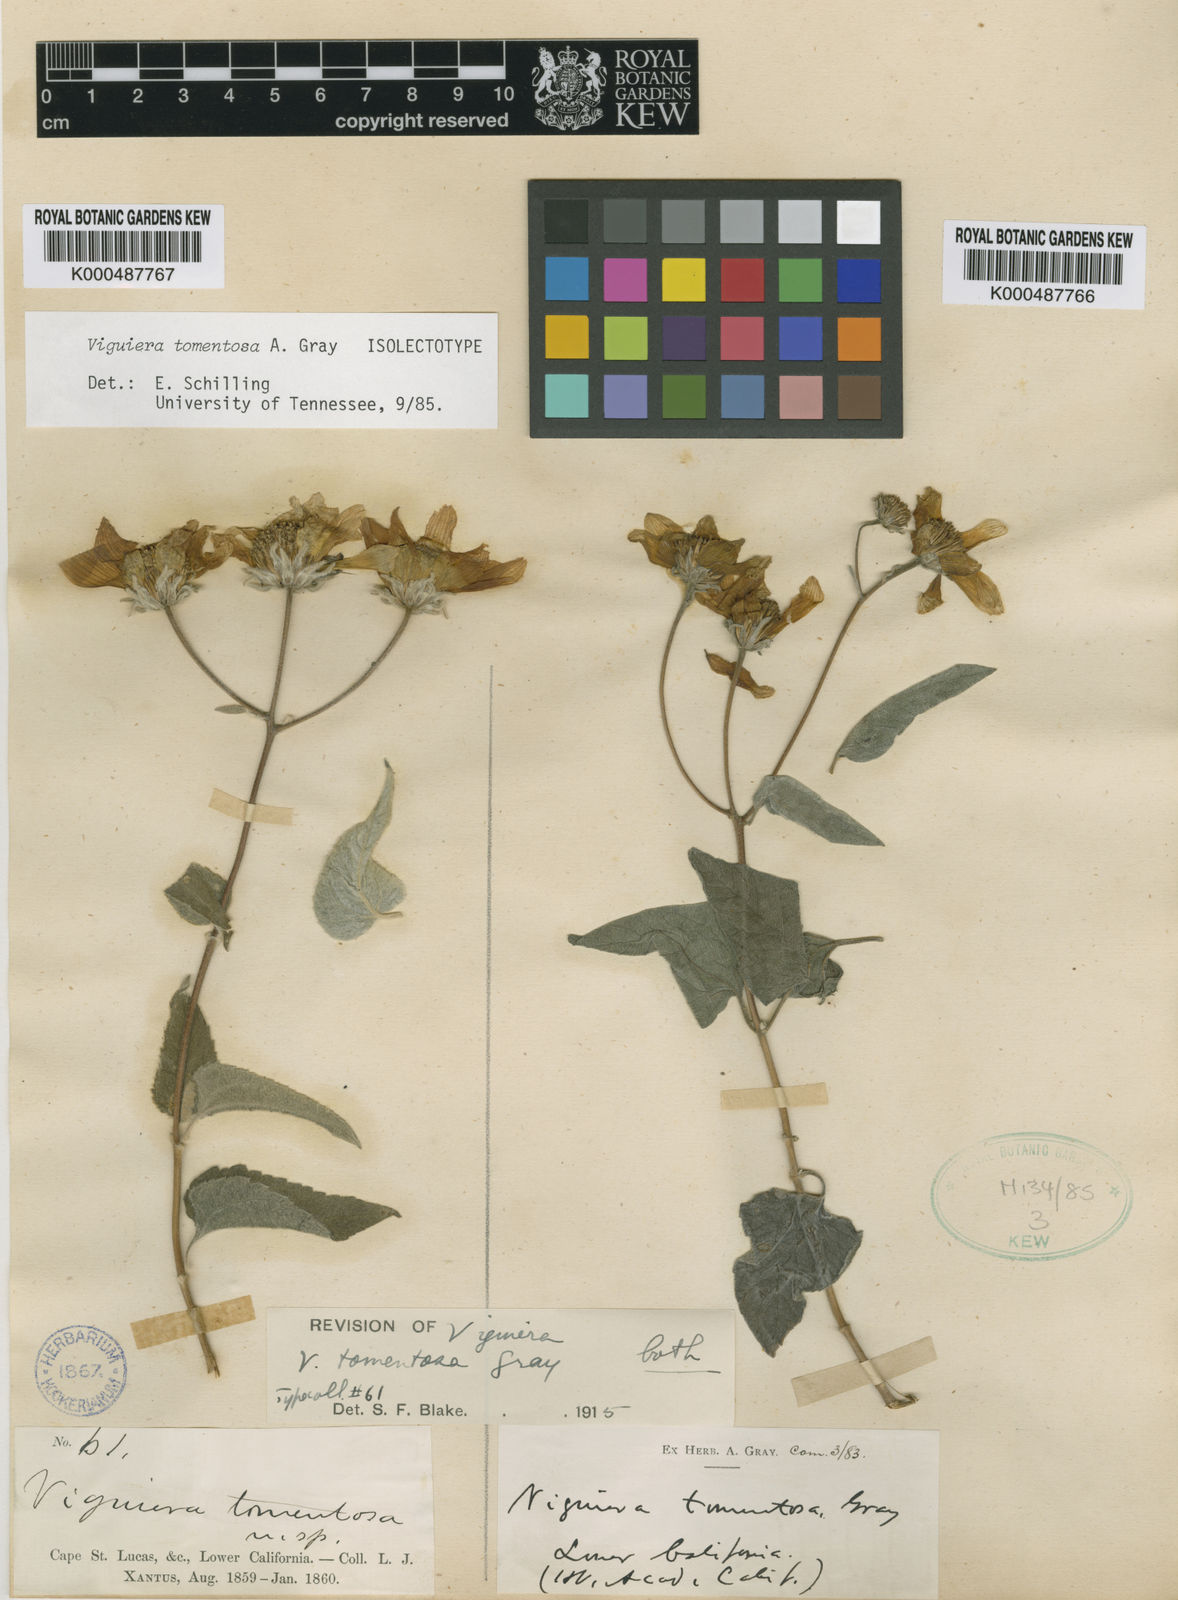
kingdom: Plantae
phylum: Tracheophyta
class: Magnoliopsida
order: Asterales
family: Asteraceae
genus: Bahiopsis
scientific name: Bahiopsis tomentosa
